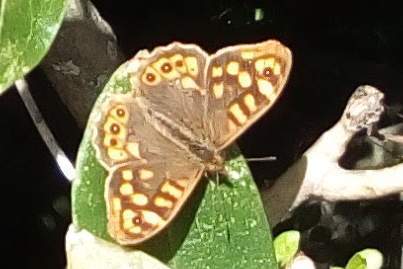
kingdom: Animalia
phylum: Arthropoda
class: Insecta
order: Lepidoptera
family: Nymphalidae
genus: Pararge
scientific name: Pararge aegeria
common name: Speckled wood
